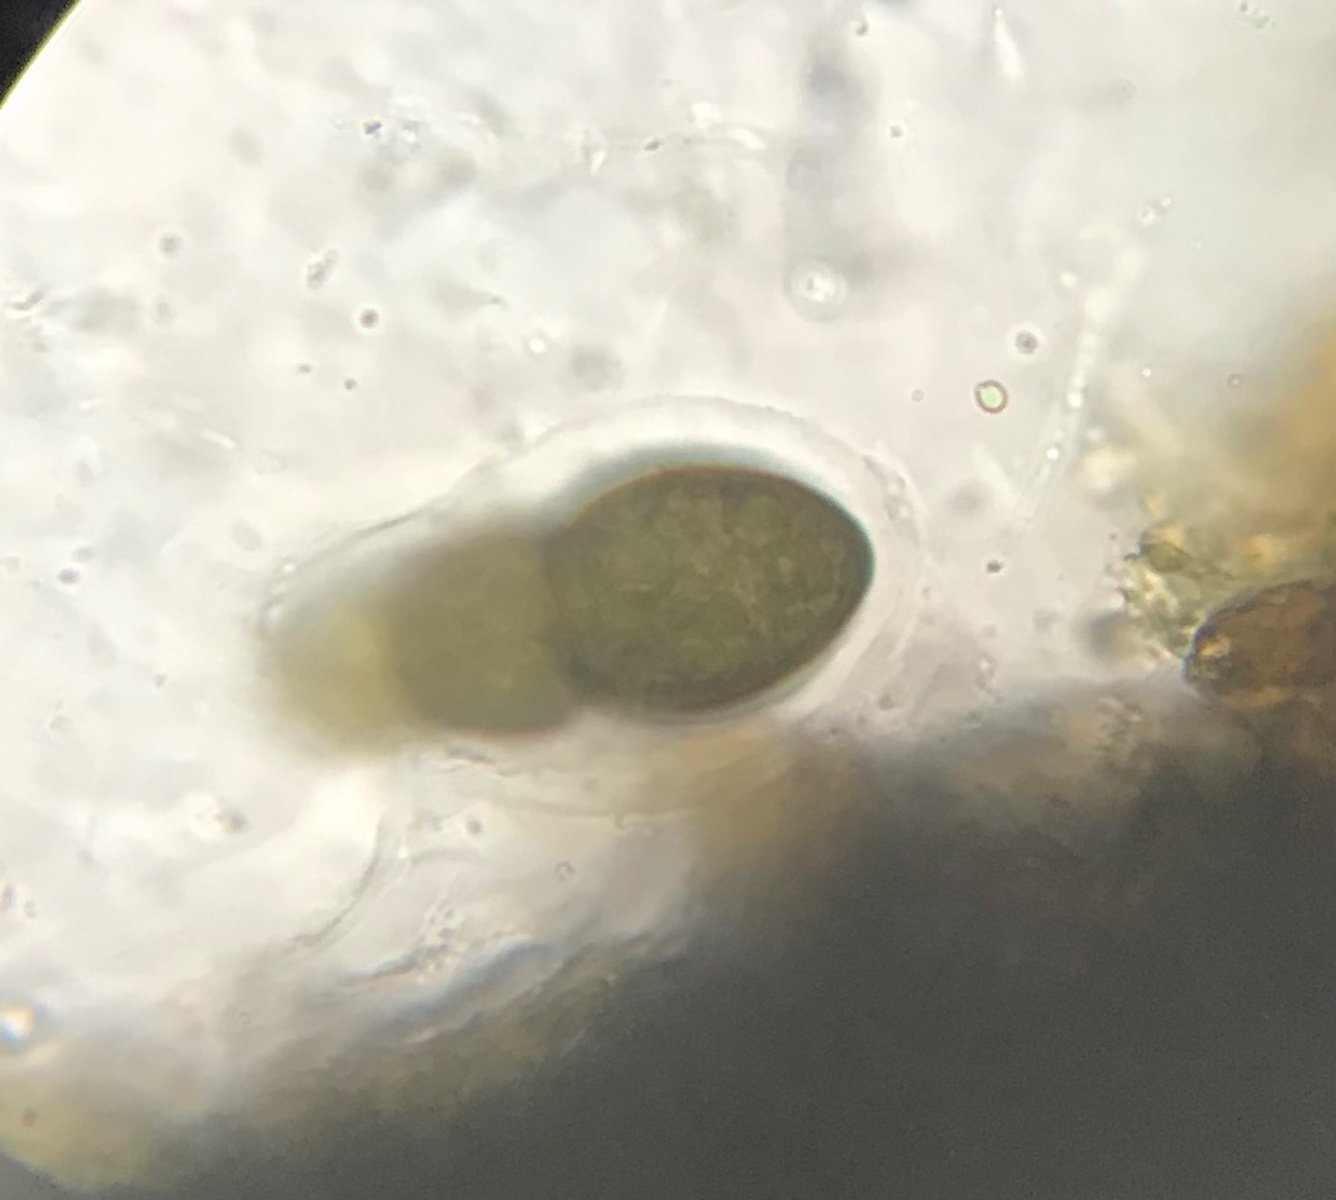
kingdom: Fungi
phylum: Ascomycota
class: Dothideomycetes
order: Pleosporales
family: Pleomassariaceae
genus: Splanchnonema
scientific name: Splanchnonema
